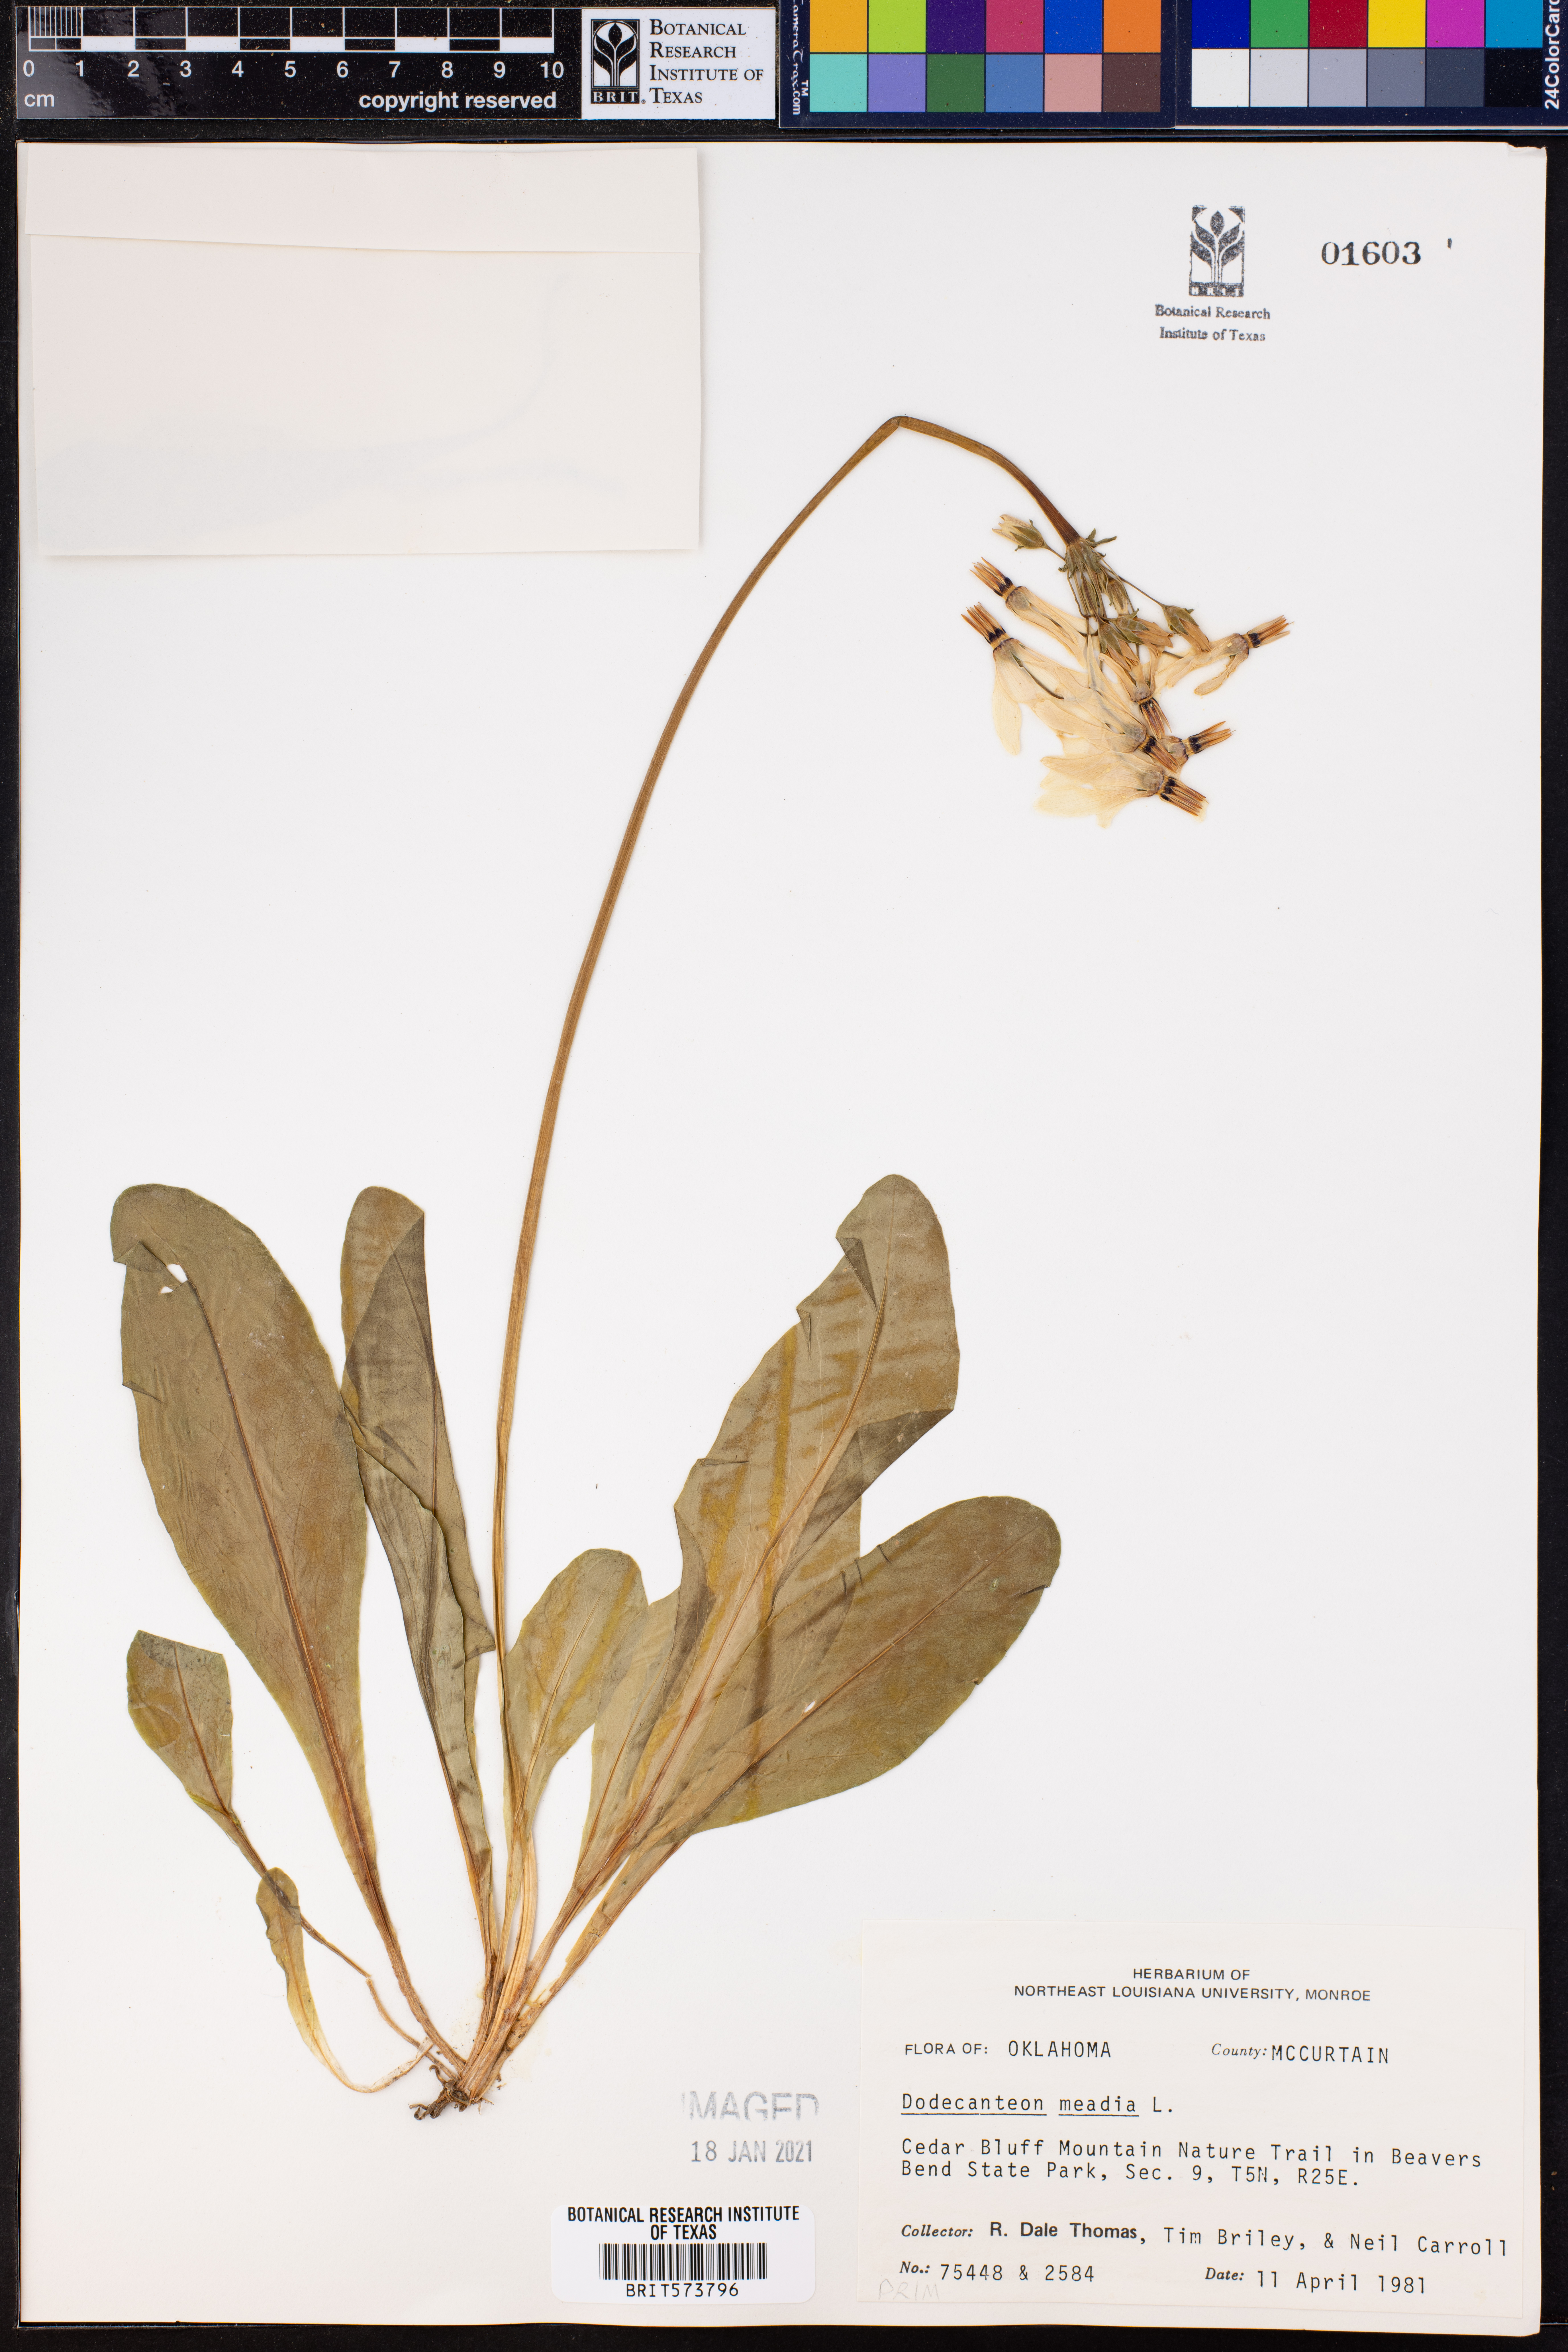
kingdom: Plantae
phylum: Tracheophyta
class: Magnoliopsida
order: Ericales
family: Primulaceae
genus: Dodecatheon
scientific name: Dodecatheon meadia
